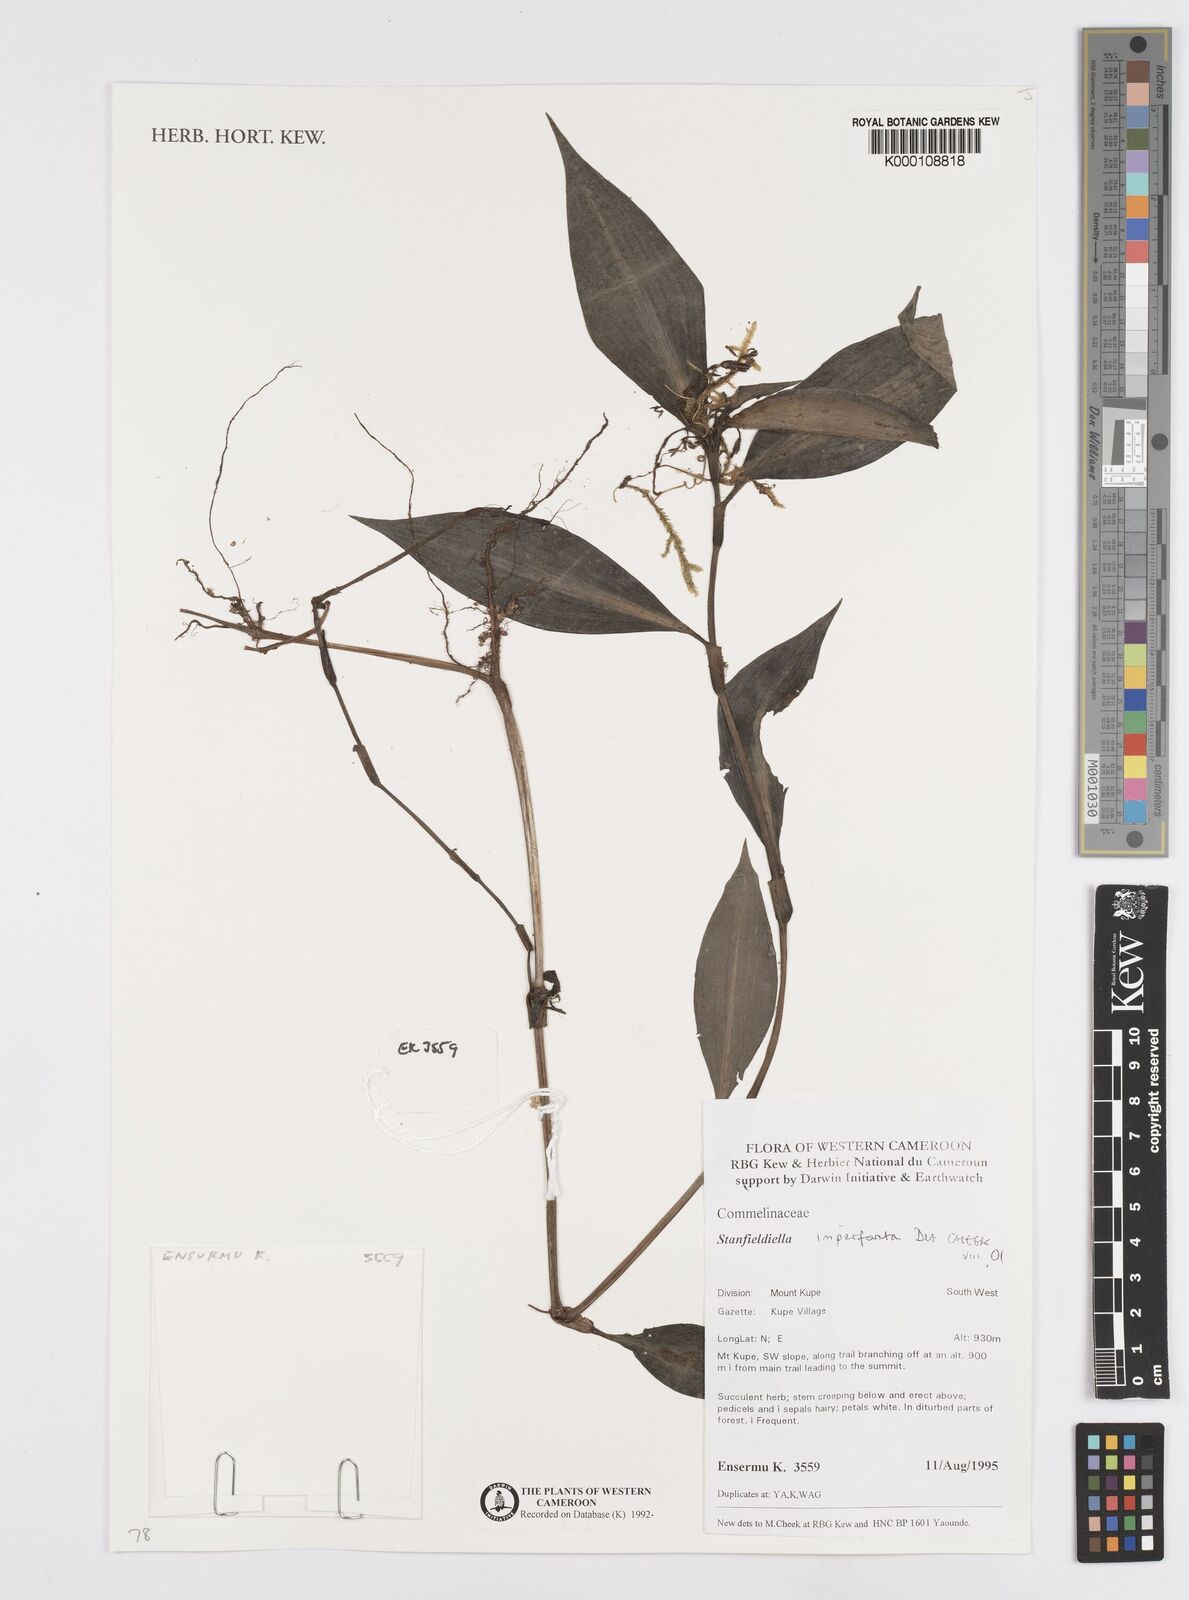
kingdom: Plantae
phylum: Tracheophyta
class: Liliopsida
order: Commelinales
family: Commelinaceae
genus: Stanfieldiella
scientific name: Stanfieldiella imperforata
